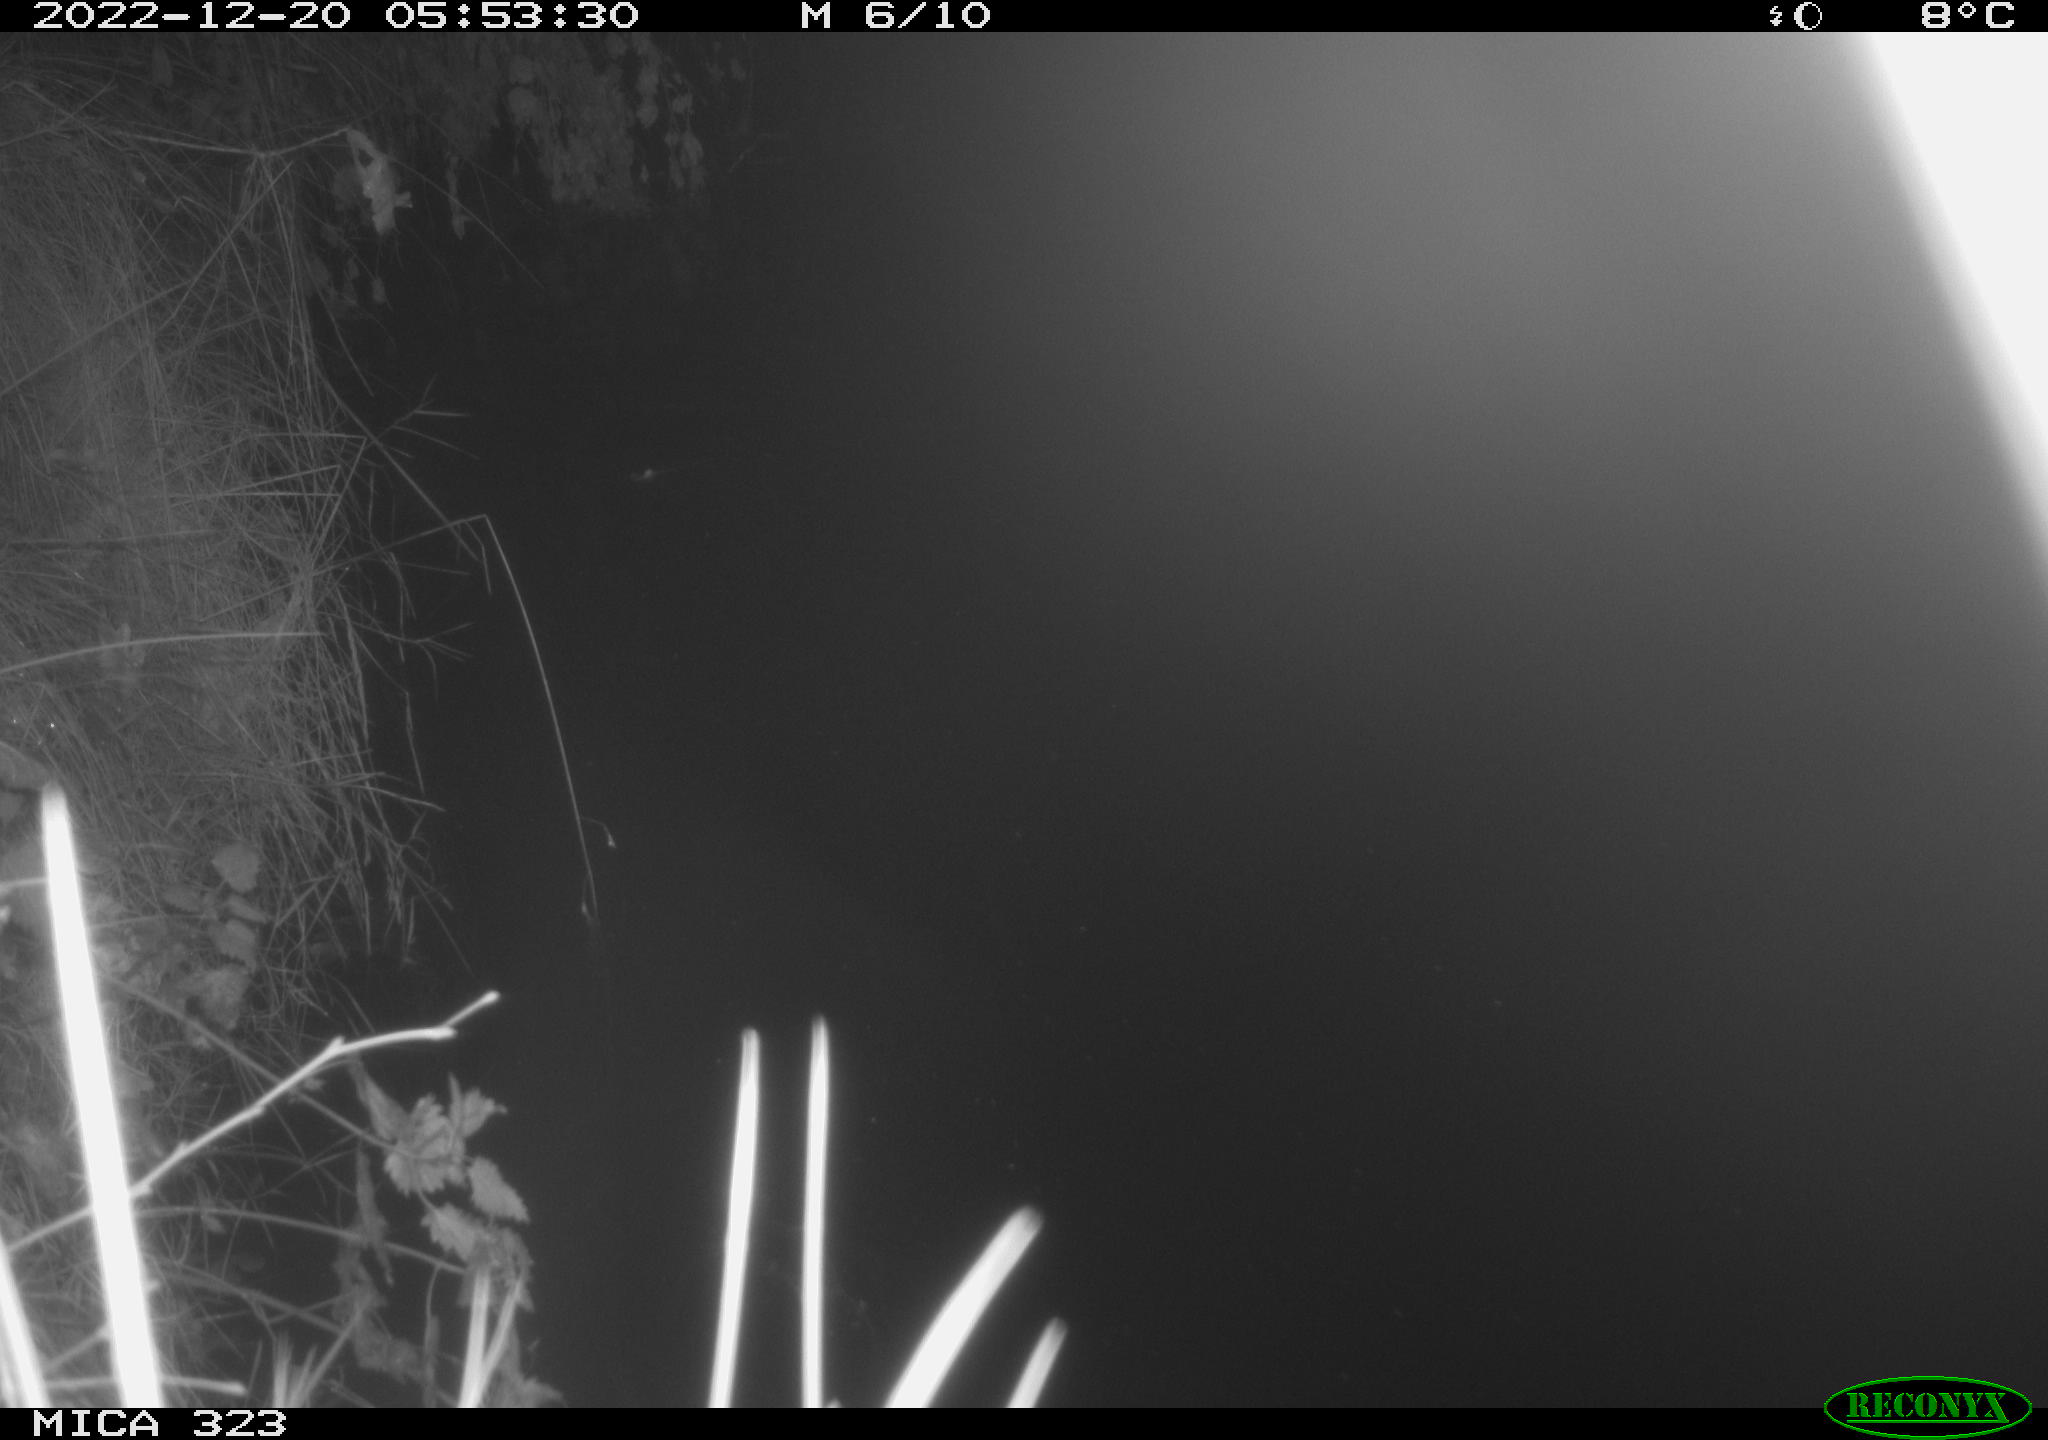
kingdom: Animalia
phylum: Chordata
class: Mammalia
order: Rodentia
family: Cricetidae
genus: Ondatra
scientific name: Ondatra zibethicus
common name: Muskrat
